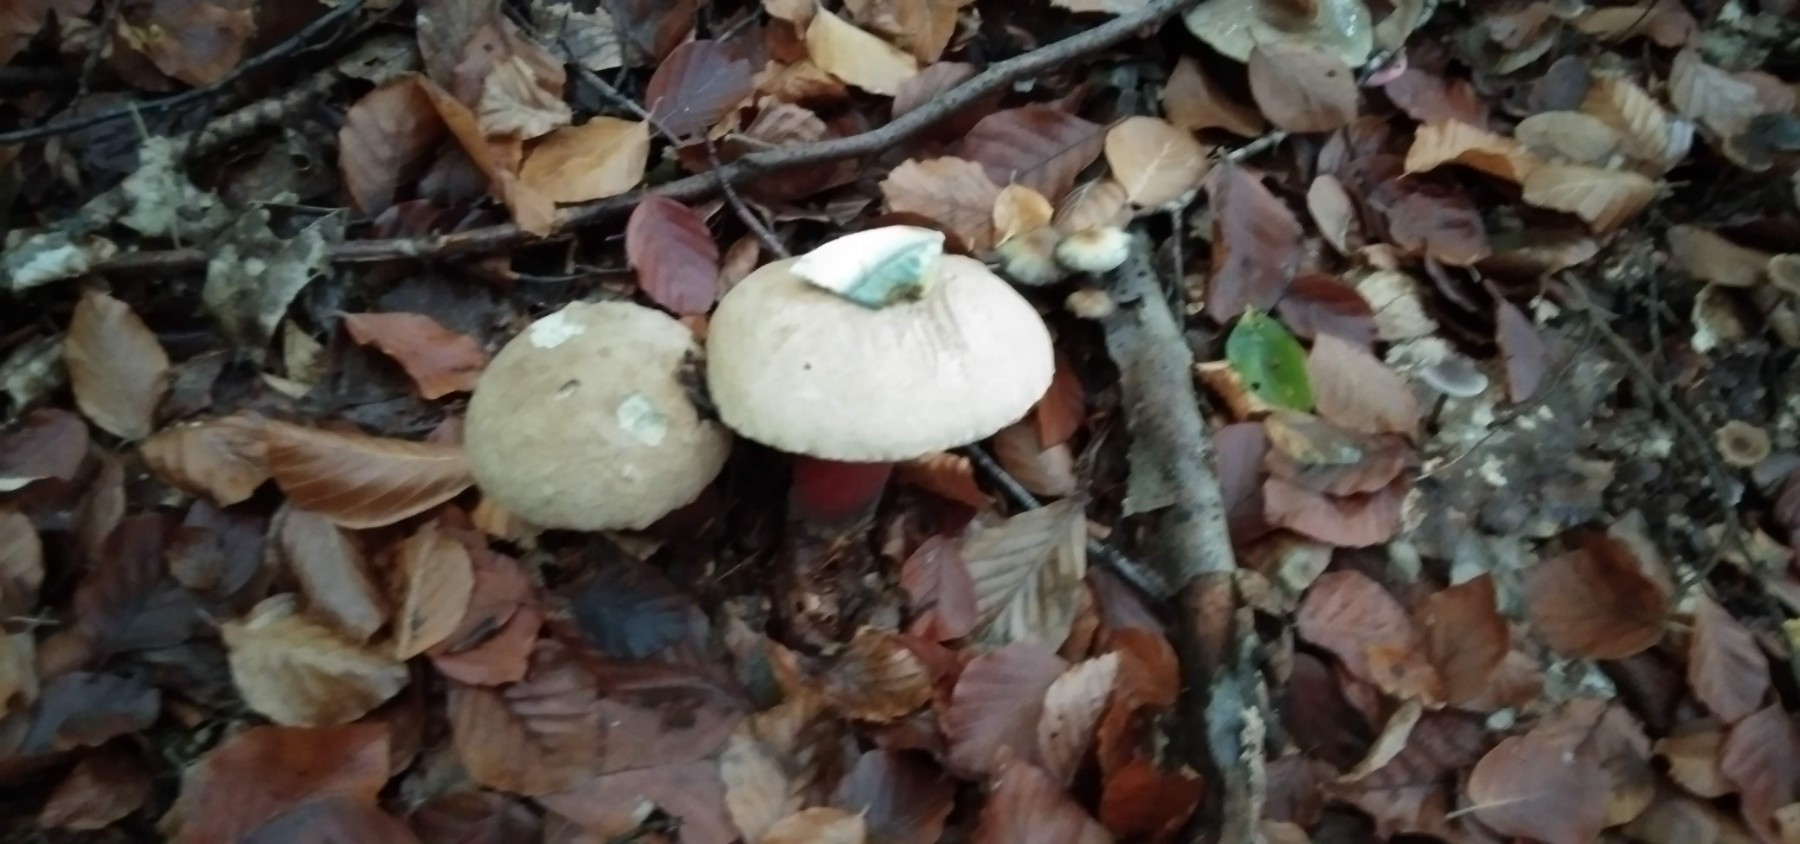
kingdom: Fungi
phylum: Basidiomycota
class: Agaricomycetes
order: Boletales
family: Boletaceae
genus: Caloboletus
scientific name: Caloboletus calopus
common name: skønfodet rørhat
